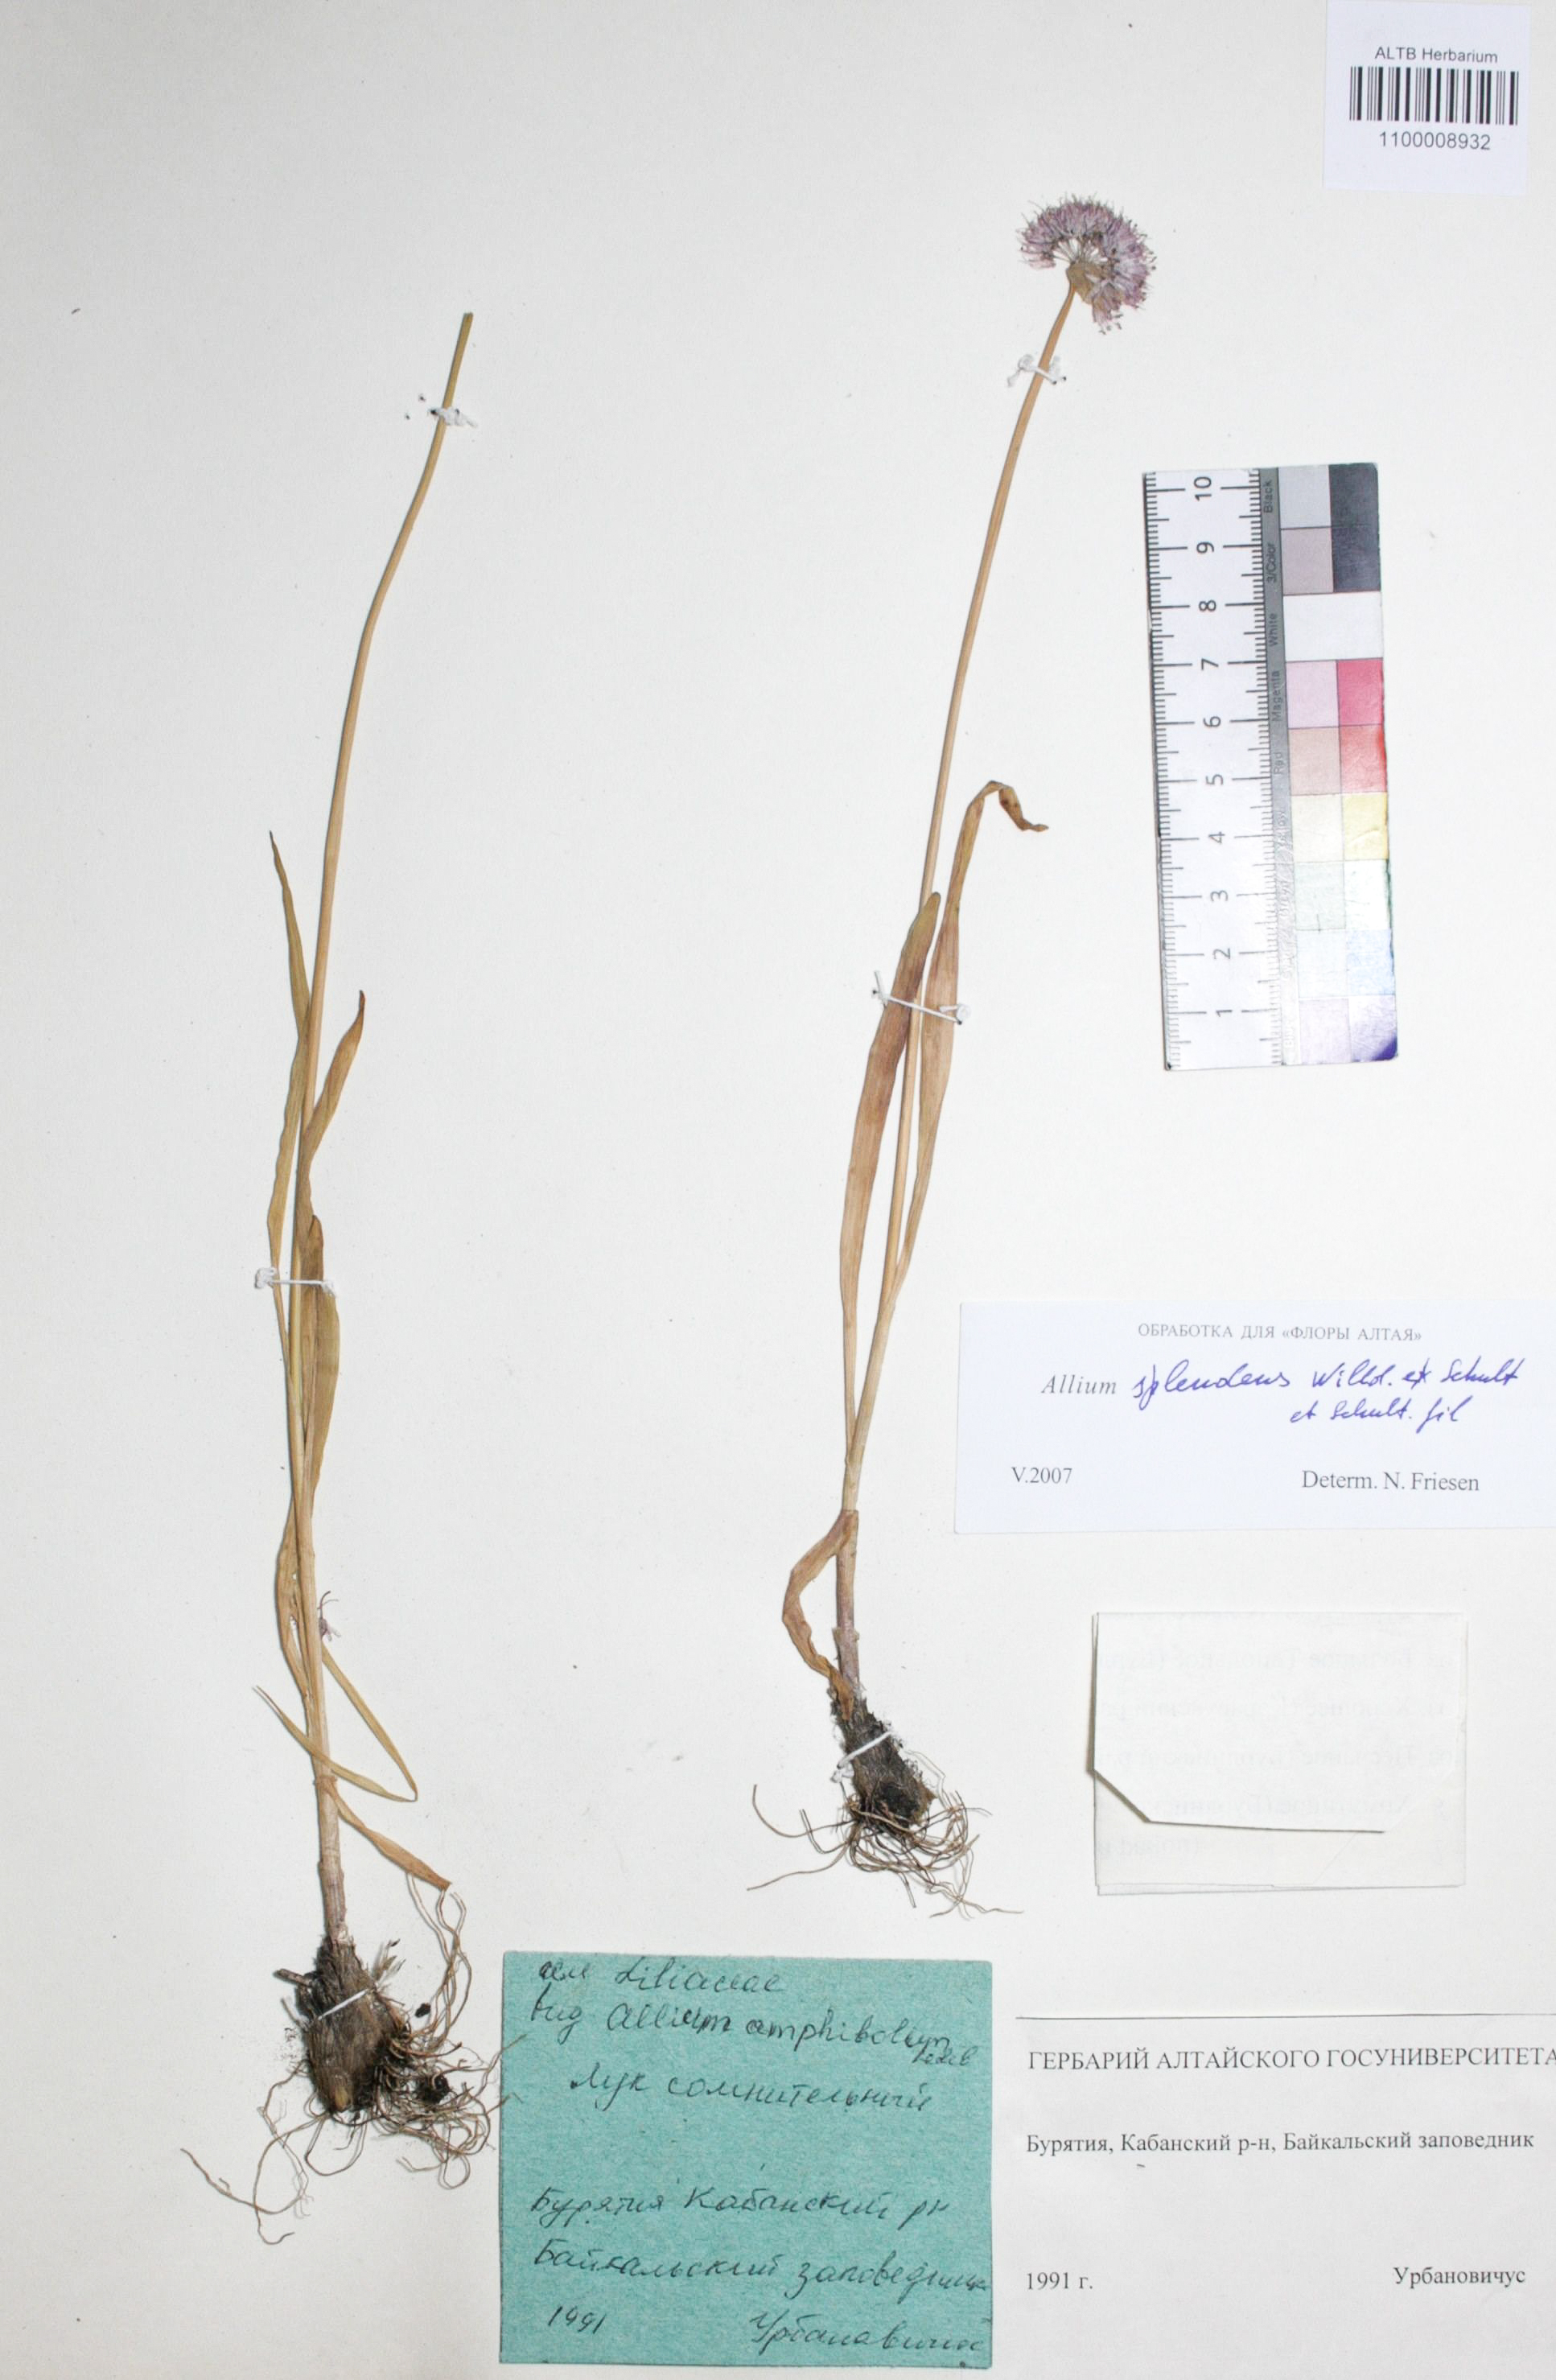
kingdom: Plantae
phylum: Tracheophyta
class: Liliopsida
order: Asparagales
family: Amaryllidaceae
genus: Allium
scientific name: Allium splendens
